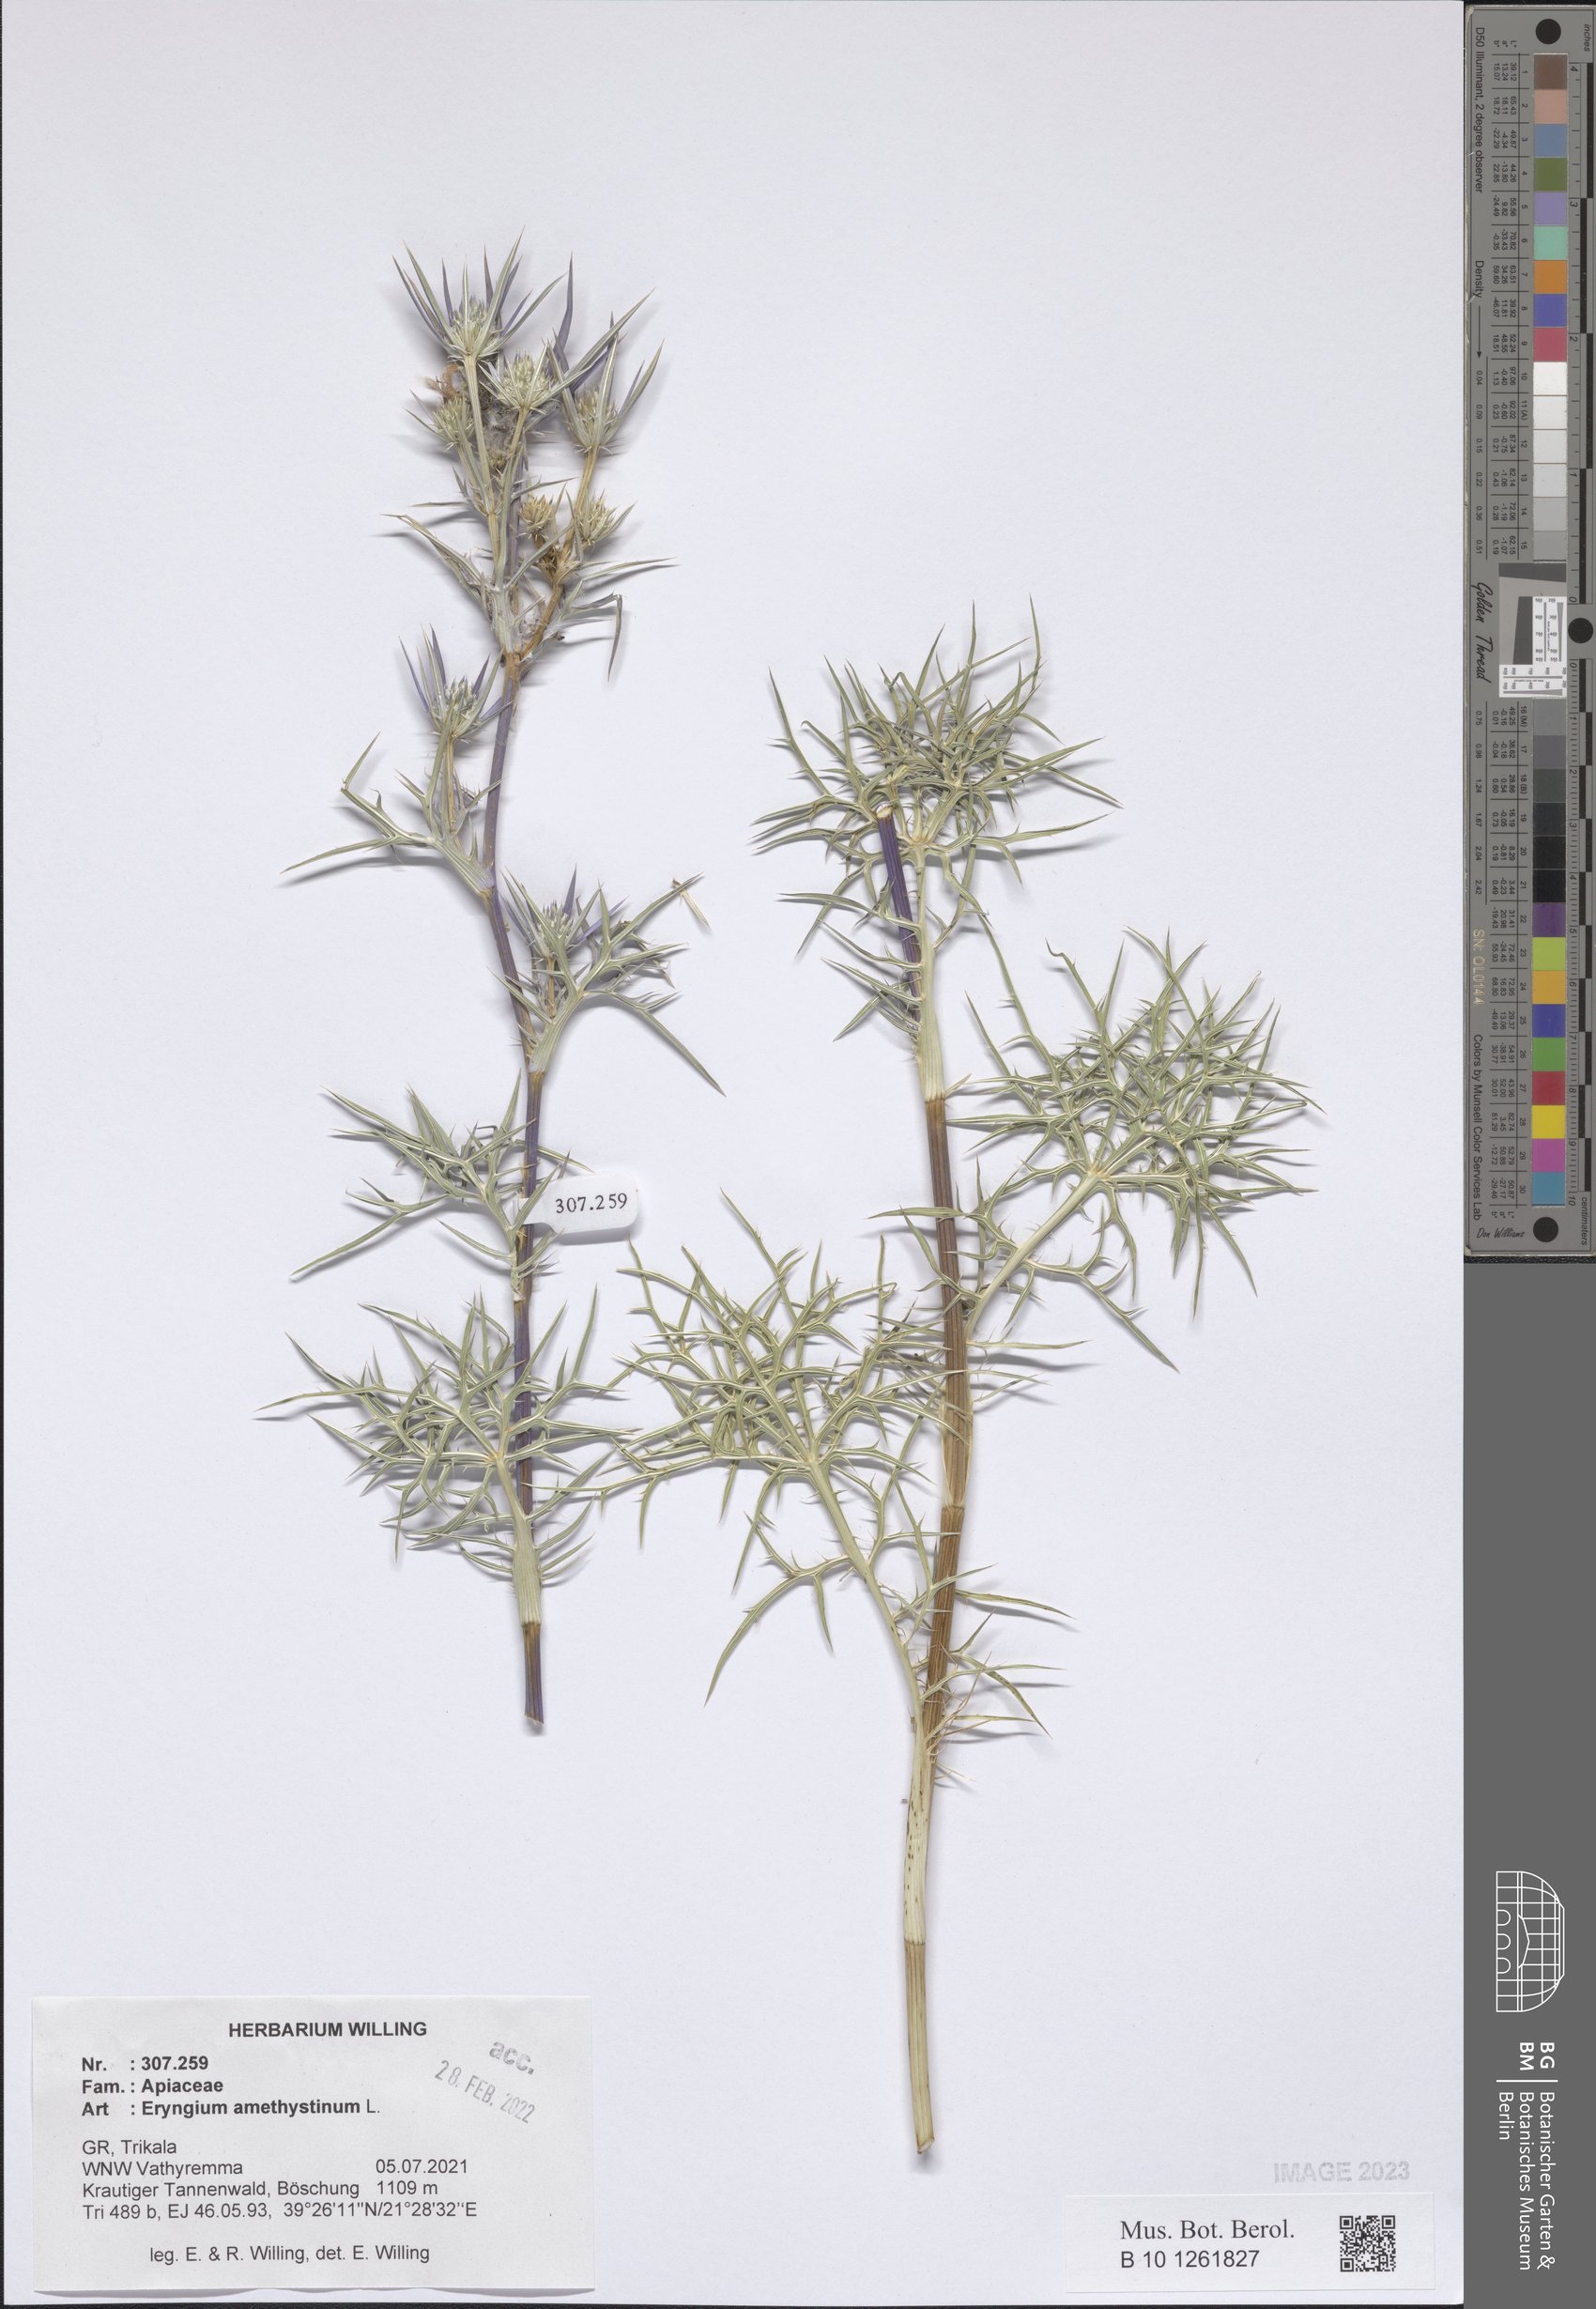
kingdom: Plantae
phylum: Tracheophyta
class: Magnoliopsida
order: Apiales
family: Apiaceae
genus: Eryngium
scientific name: Eryngium amethystinum
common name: Amethyst eryngo
